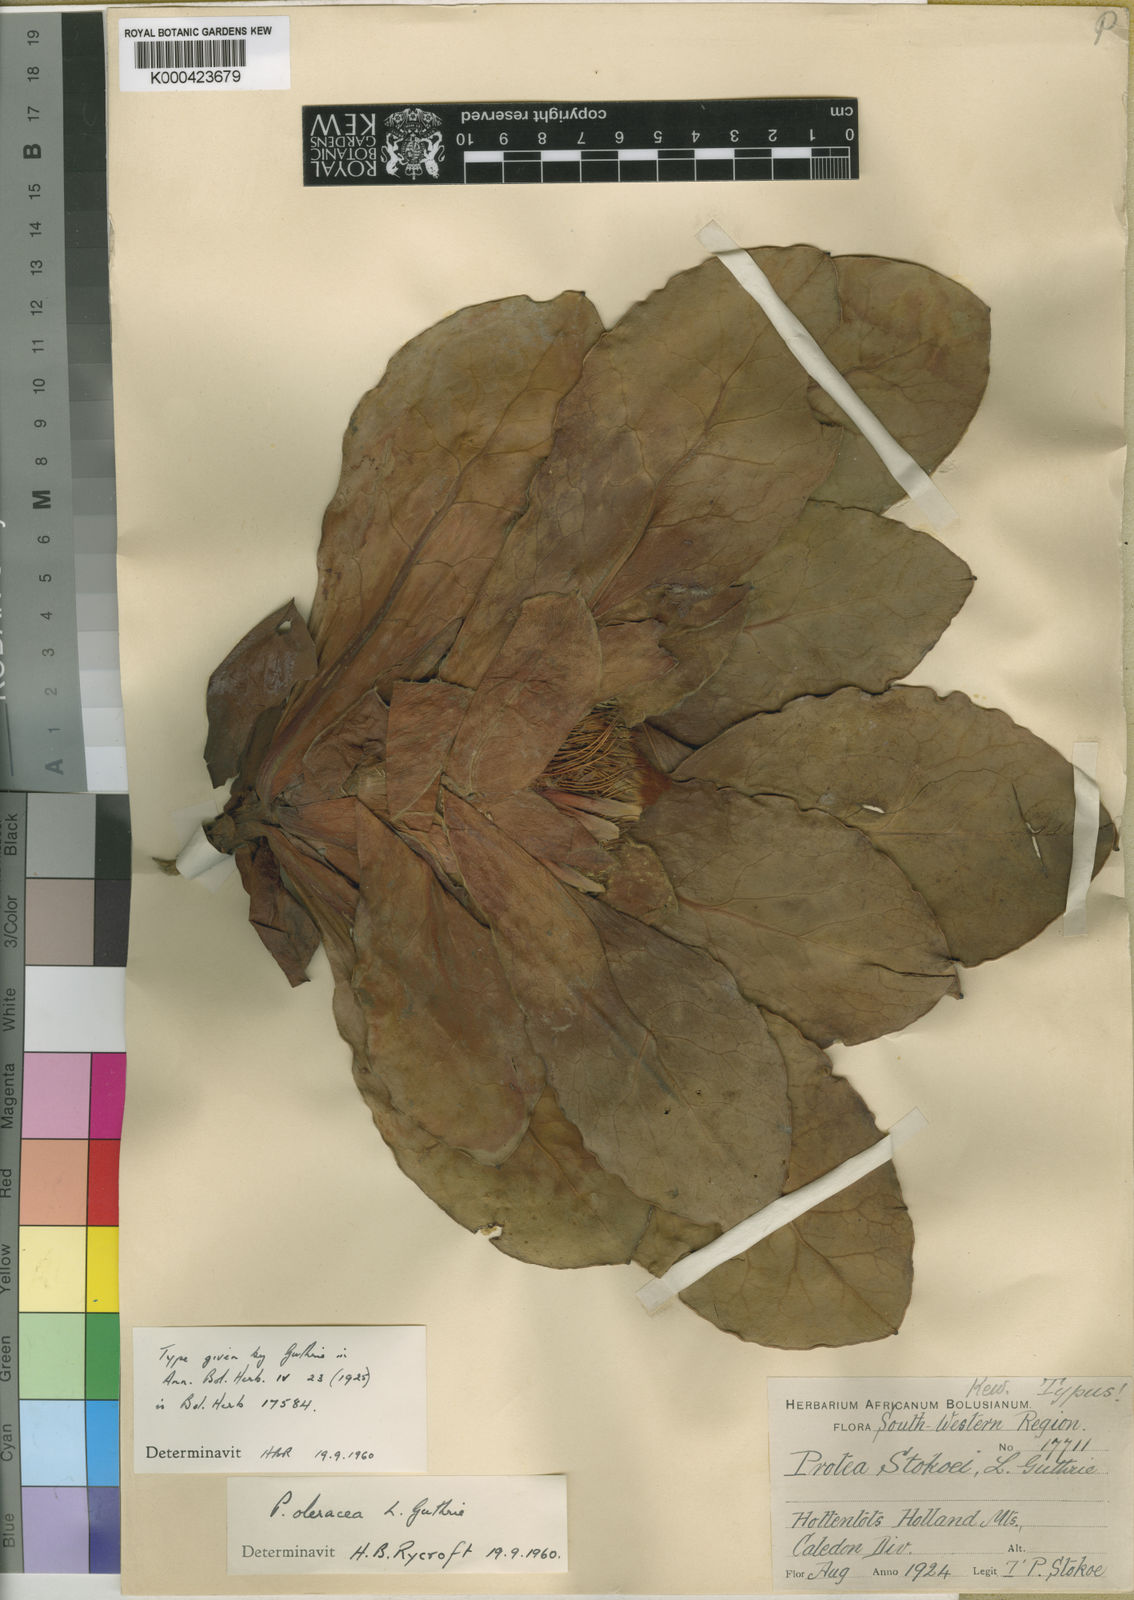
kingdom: Plantae
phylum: Tracheophyta
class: Magnoliopsida
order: Proteales
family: Proteaceae
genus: Protea
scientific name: Protea caespitosa
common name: Bishop sugarbush
